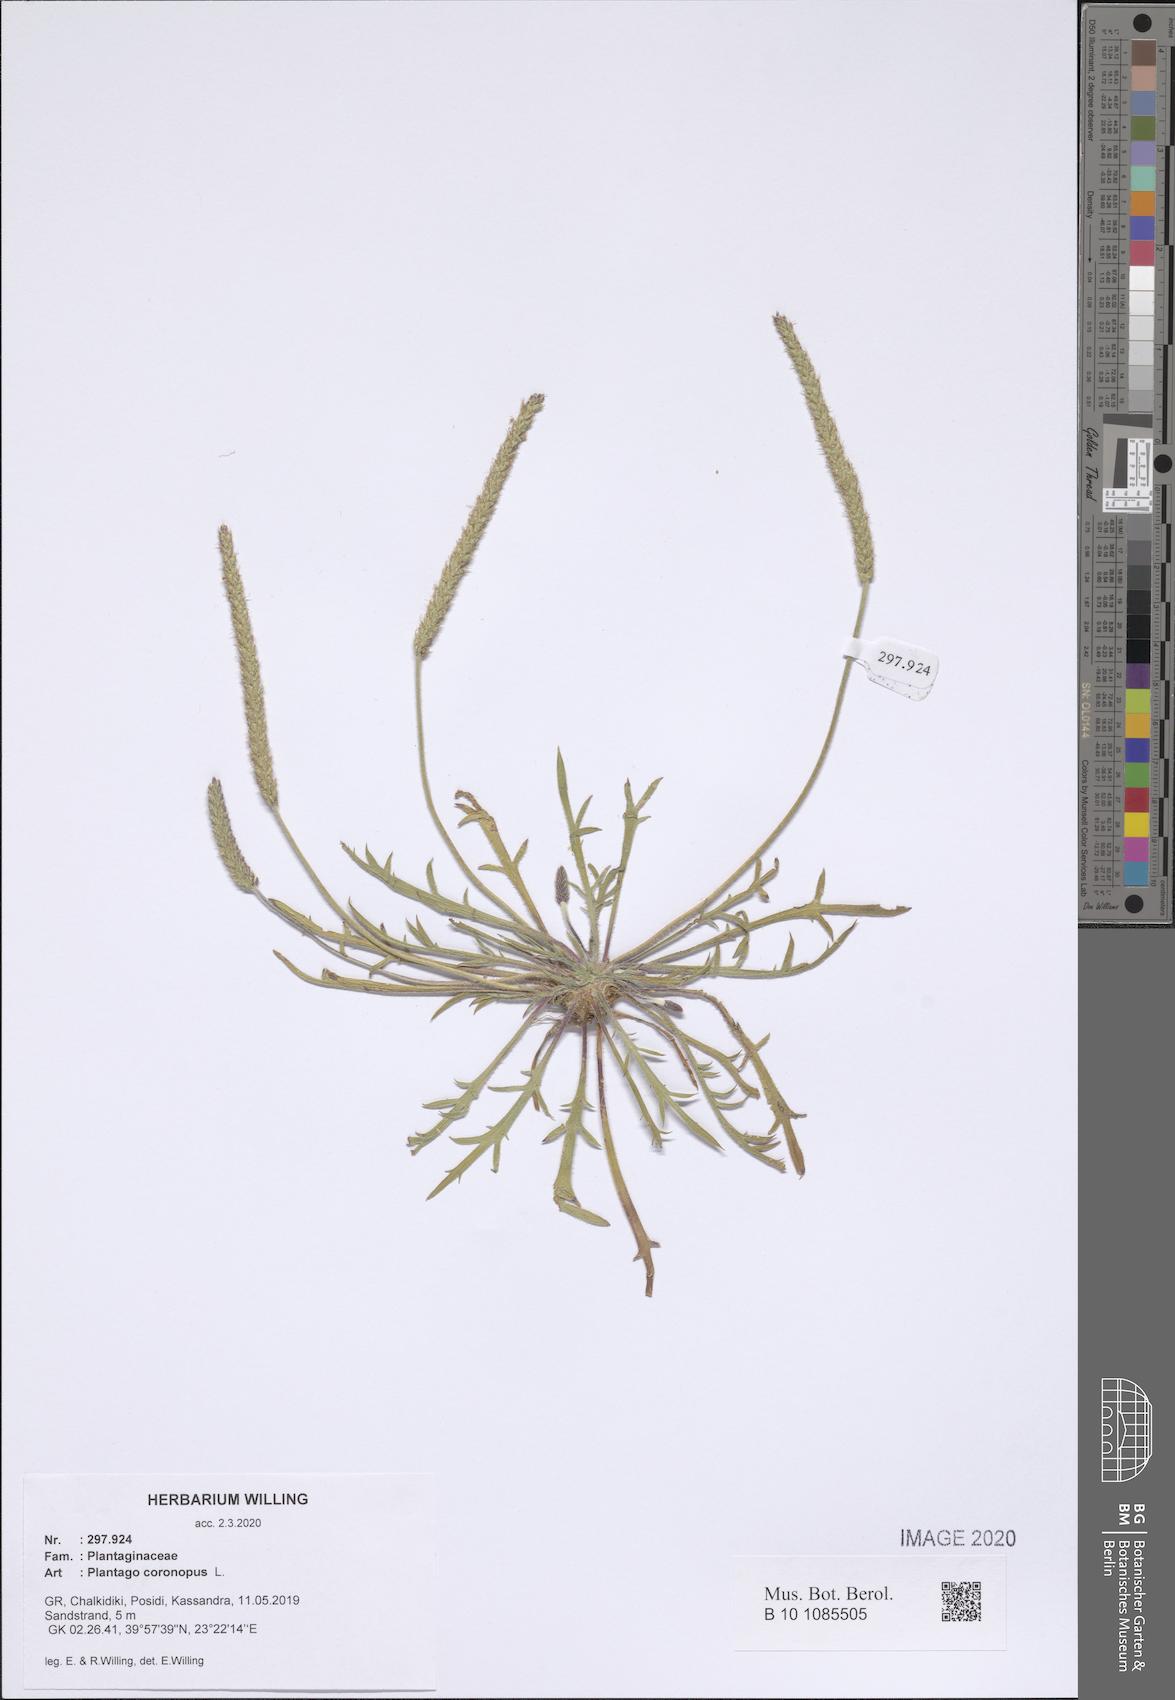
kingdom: Plantae
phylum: Tracheophyta
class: Magnoliopsida
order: Lamiales
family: Plantaginaceae
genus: Plantago
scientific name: Plantago coronopus
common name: Buck's-horn plantain
